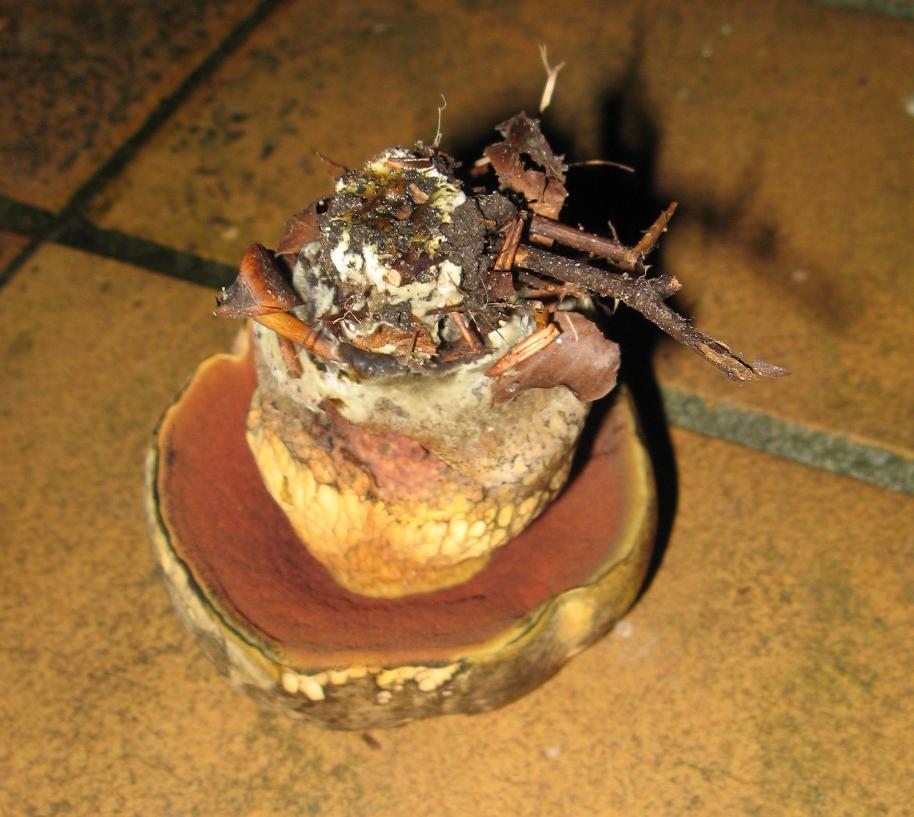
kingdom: Fungi
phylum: Basidiomycota
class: Agaricomycetes
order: Boletales
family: Boletaceae
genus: Suillellus
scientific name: Suillellus luridus
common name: netstokket indigorørhat
